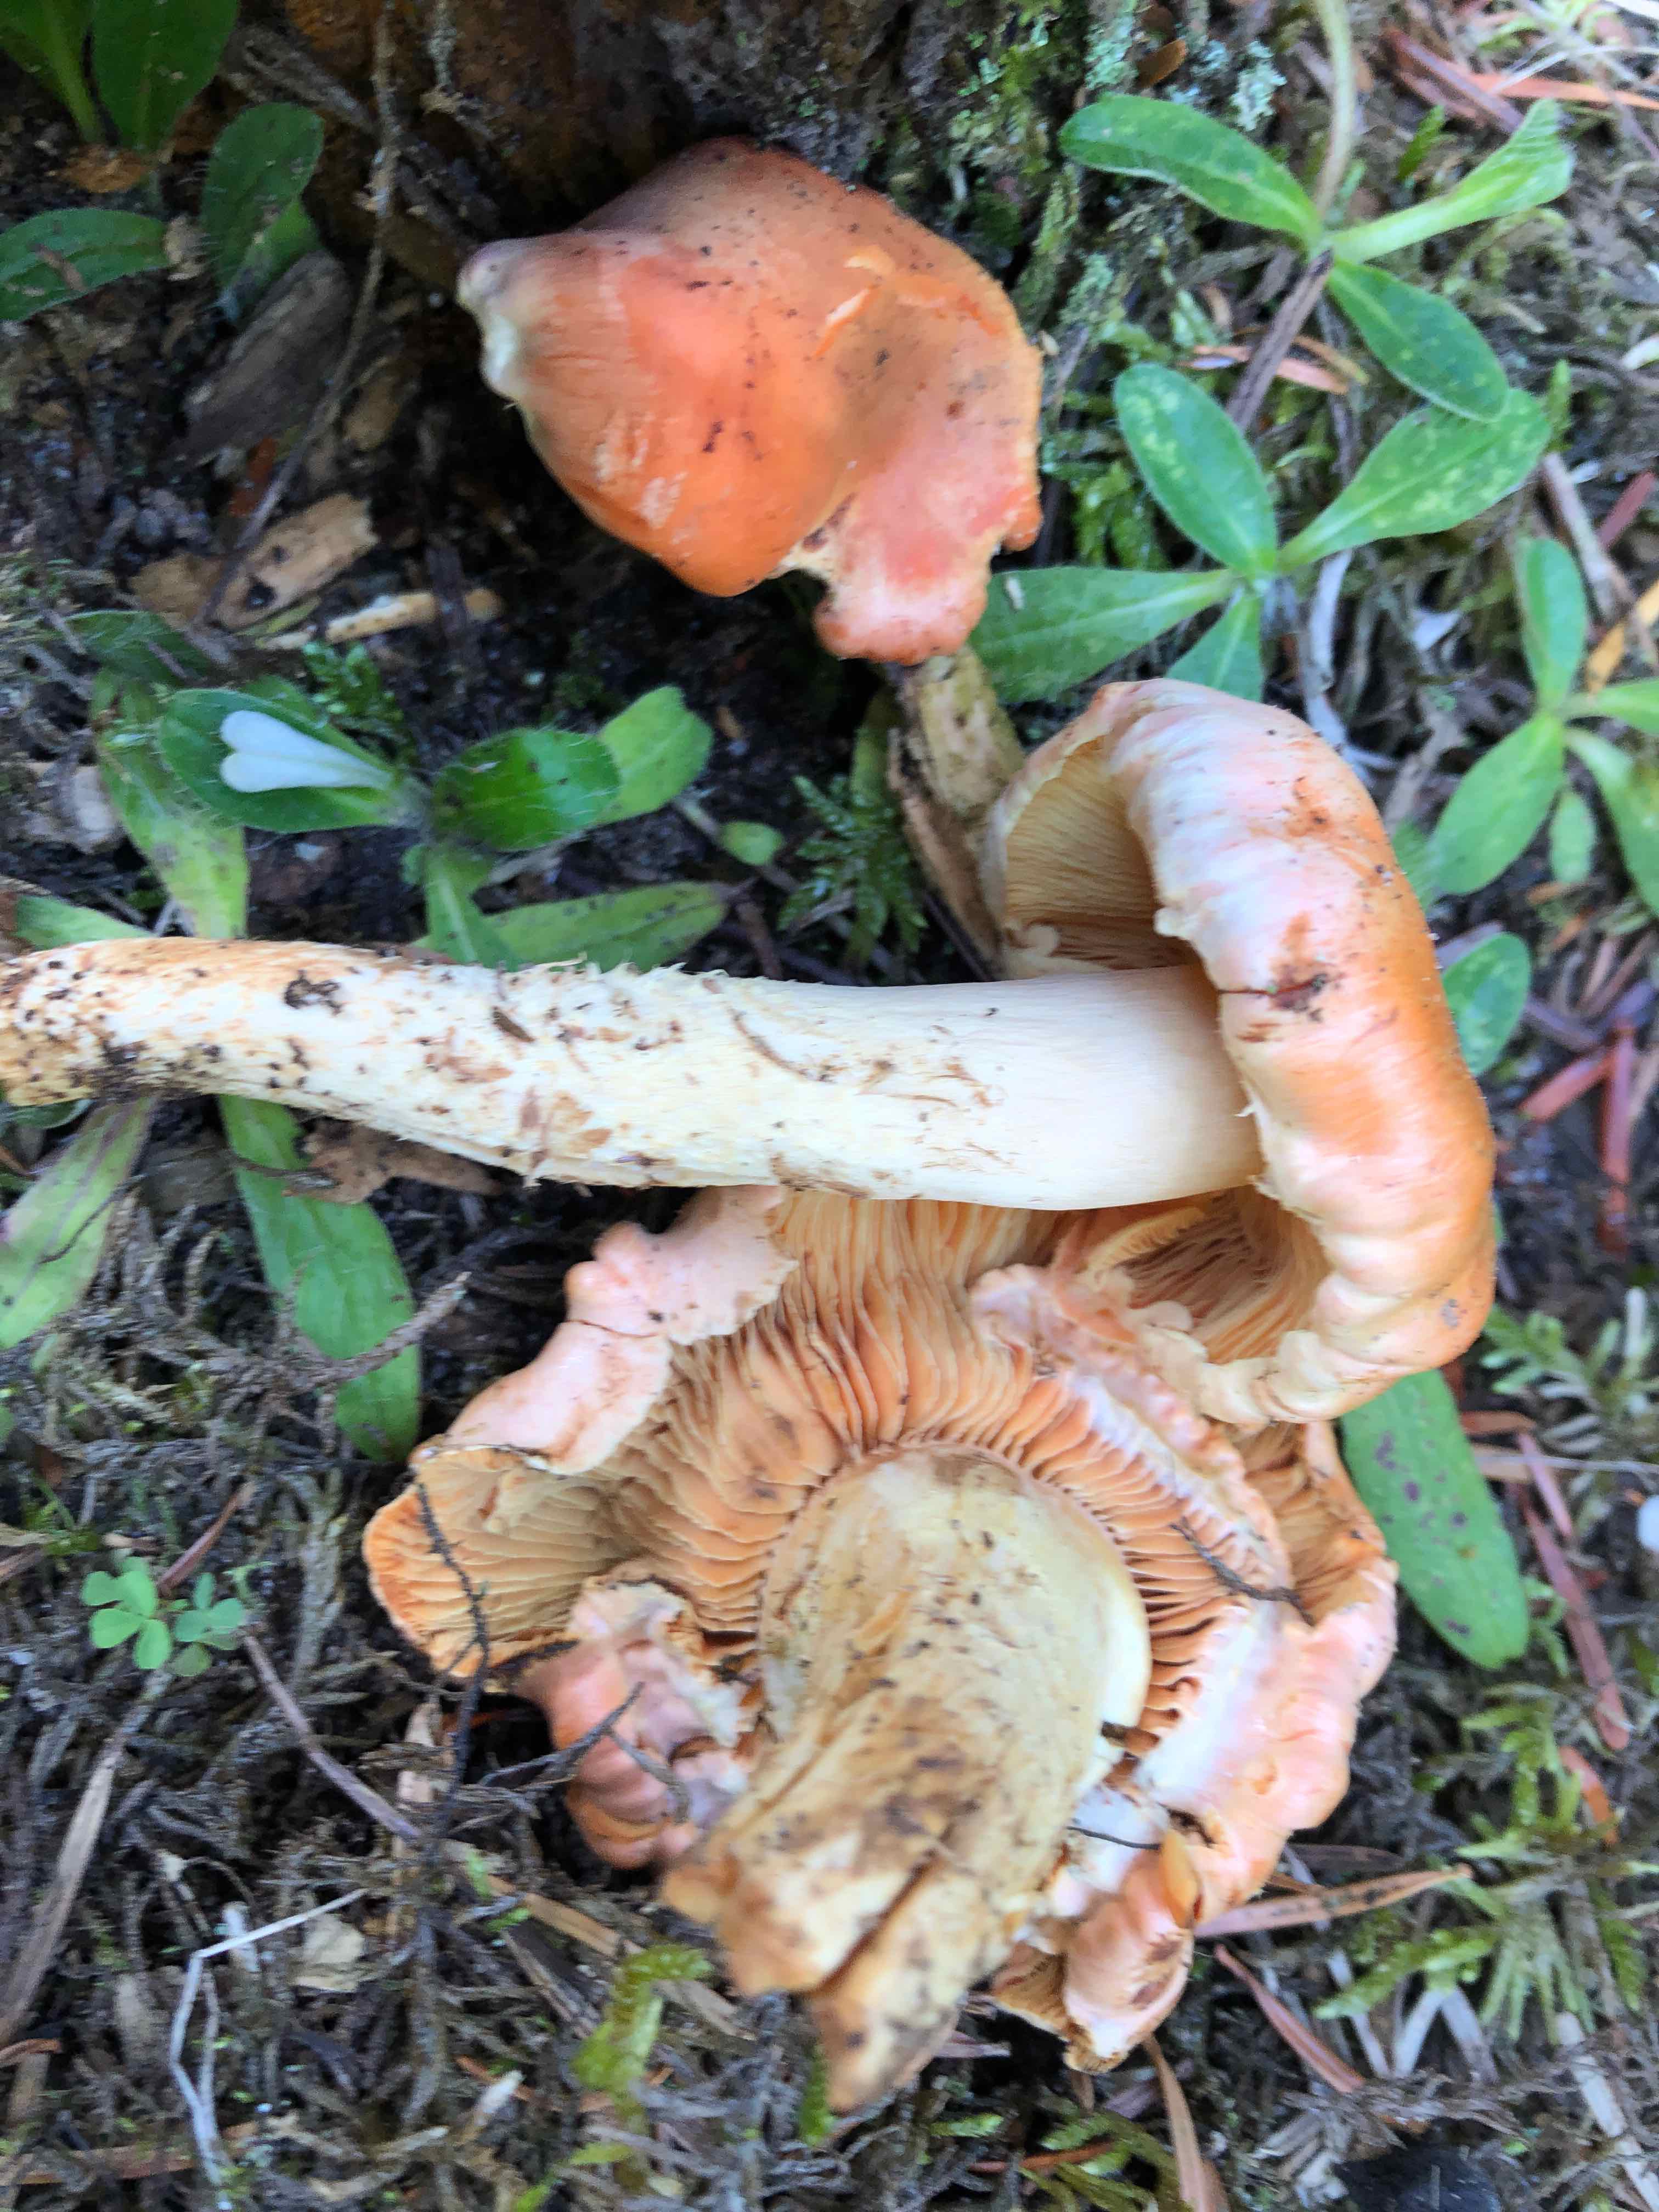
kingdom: Fungi
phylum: Basidiomycota
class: Agaricomycetes
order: Agaricales
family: Strophariaceae
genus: Pyrrhulomyces
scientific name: Pyrrhulomyces astragalinus
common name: safran-skælhat
